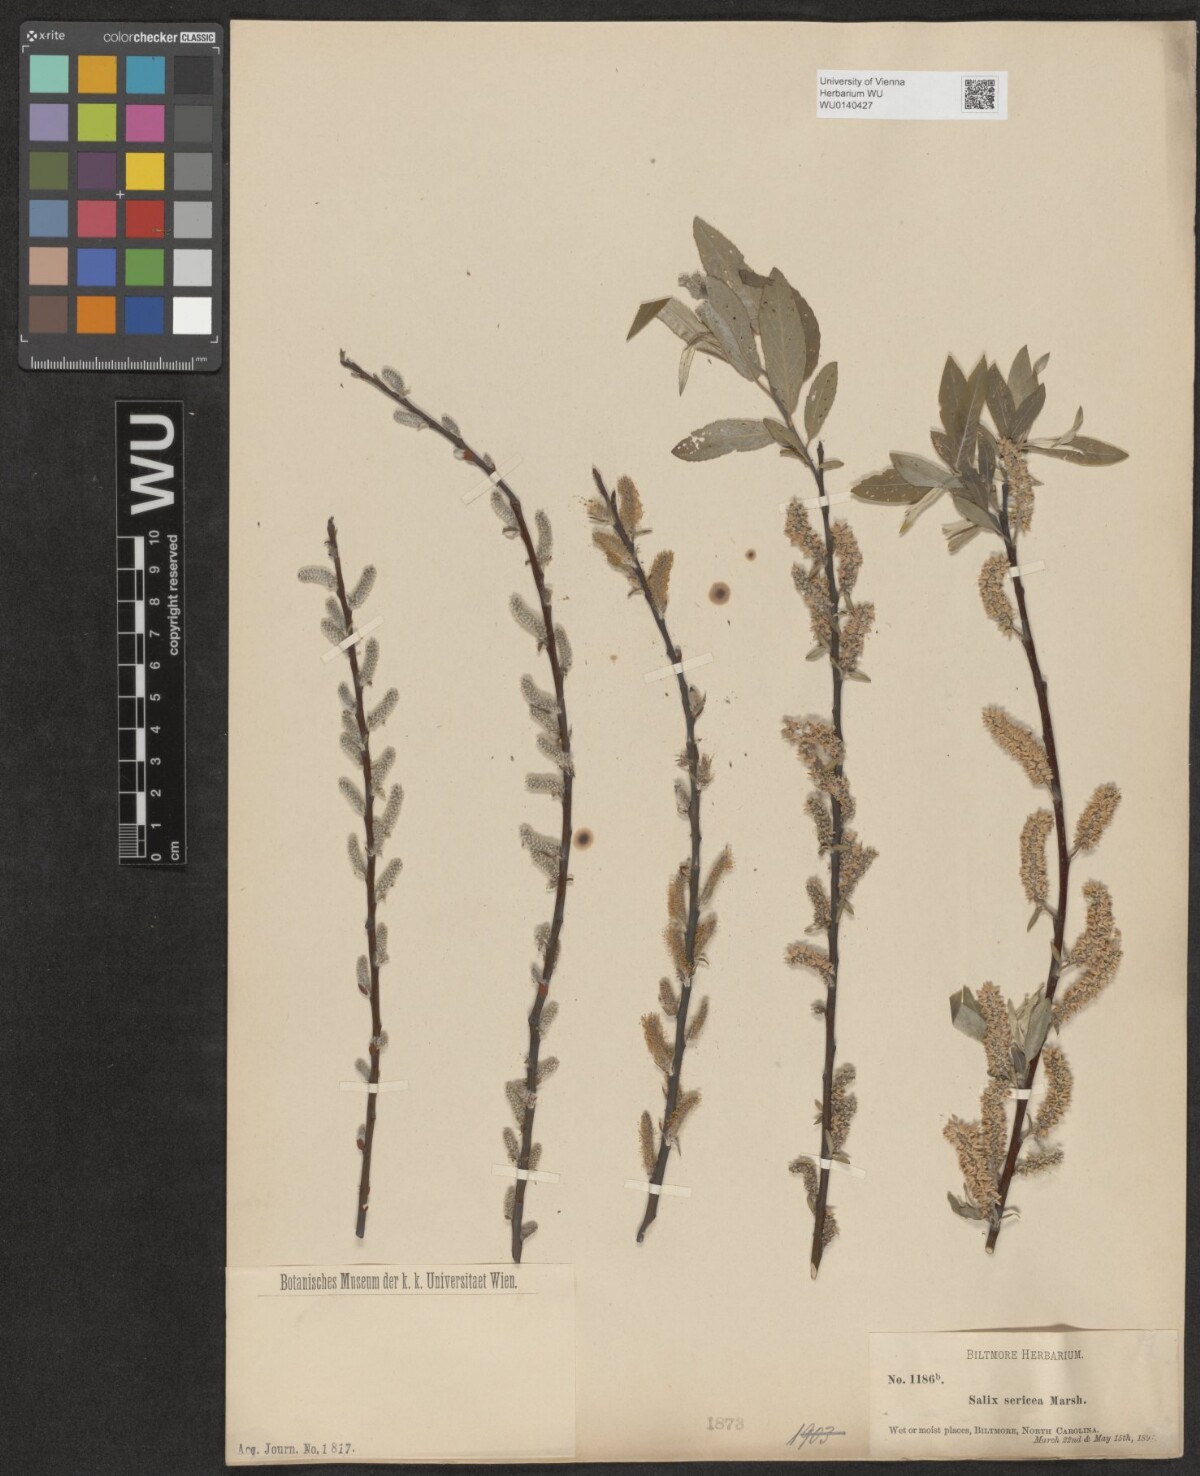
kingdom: Plantae
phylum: Tracheophyta
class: Magnoliopsida
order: Malpighiales
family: Salicaceae
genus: Salix
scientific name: Salix sericea
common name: Silky willow
